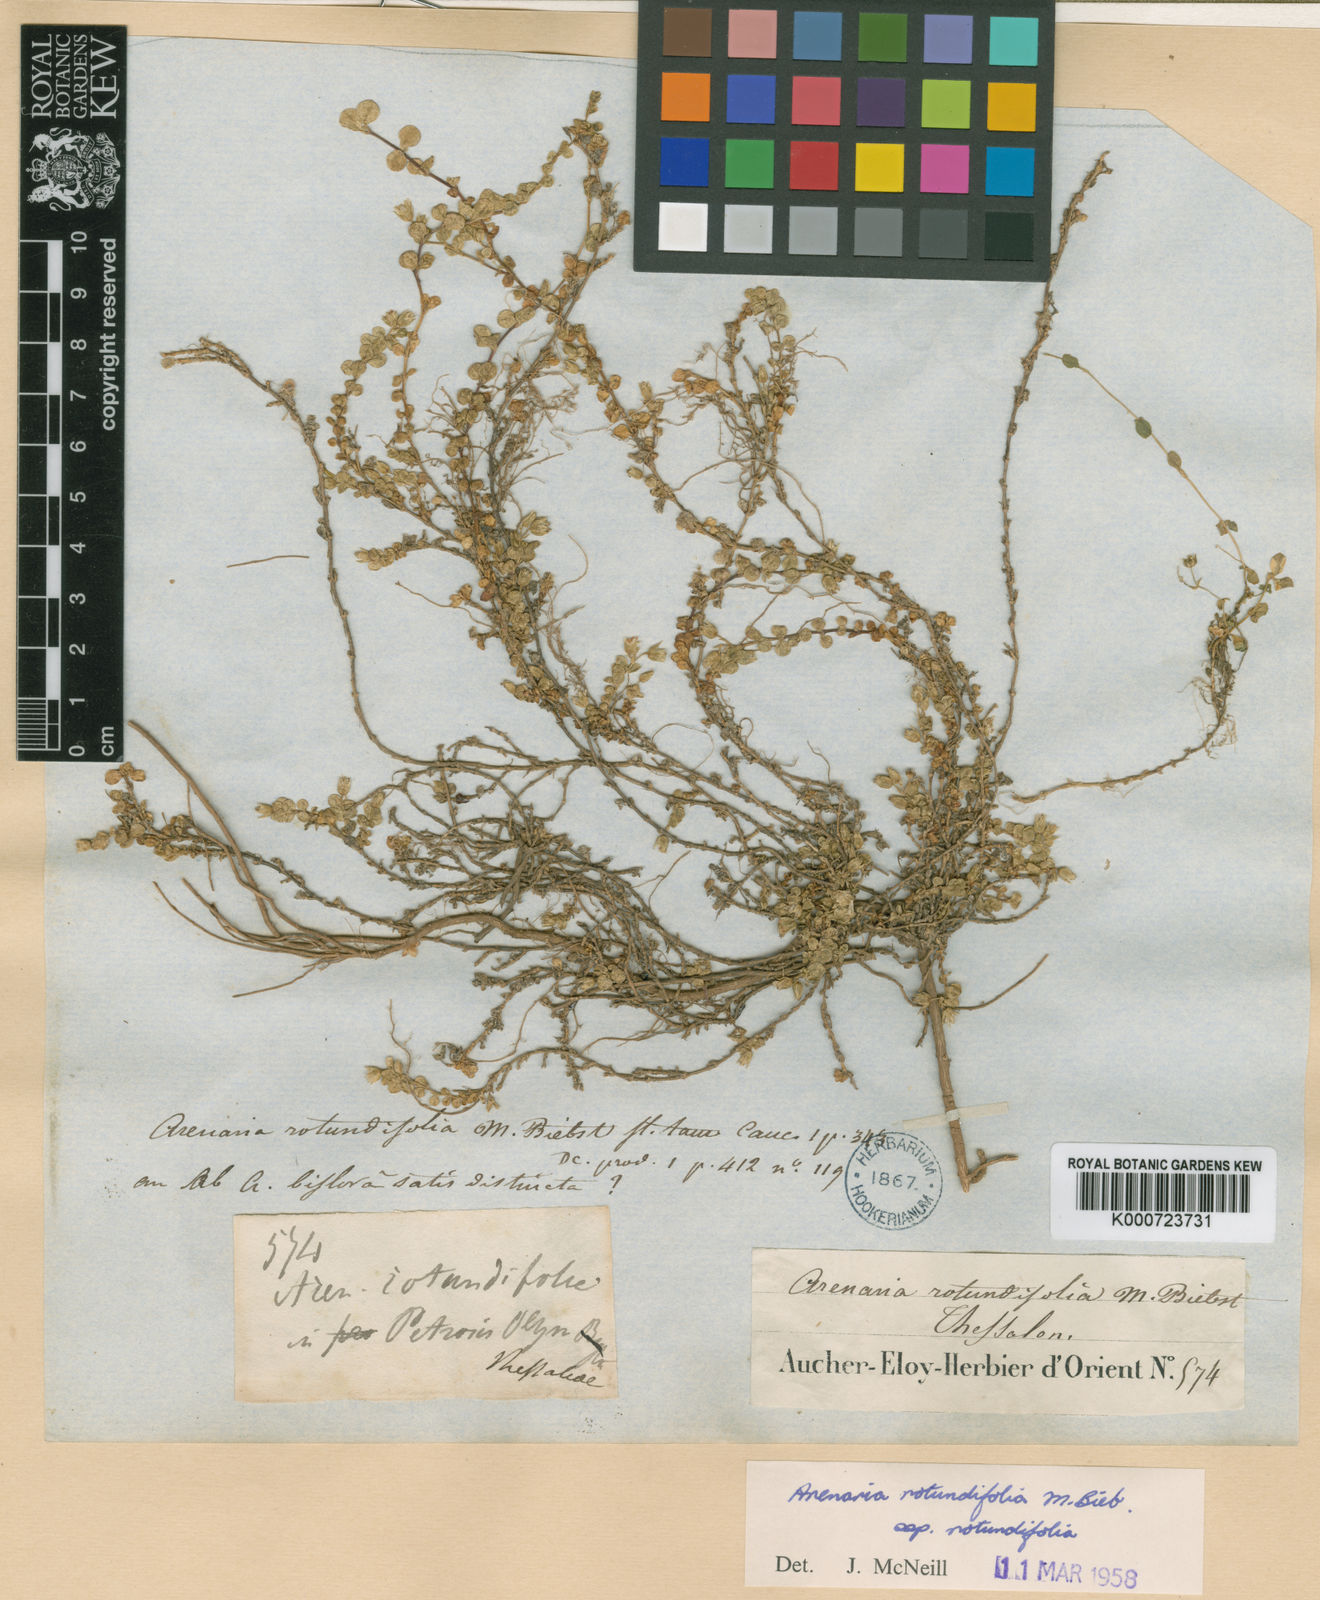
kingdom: Plantae
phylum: Tracheophyta
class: Magnoliopsida
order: Caryophyllales
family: Caryophyllaceae
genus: Arenaria
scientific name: Arenaria rotundifolia
